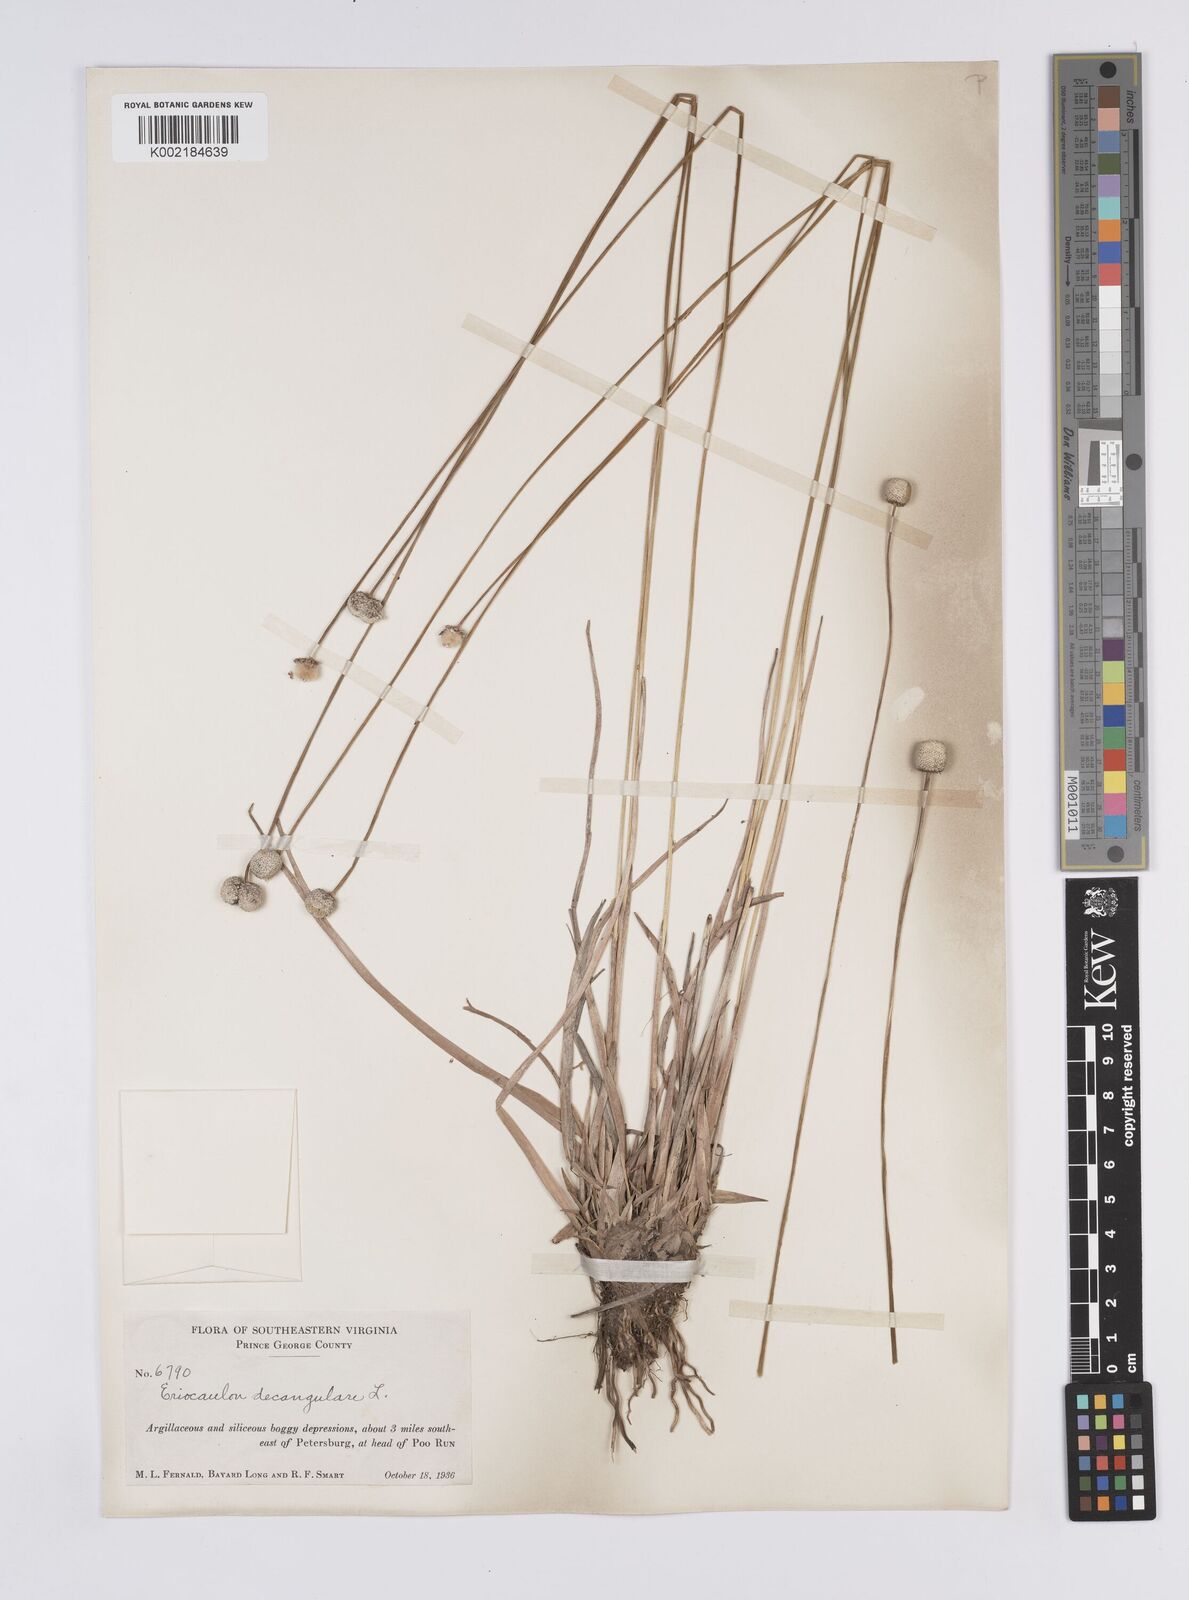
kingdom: Plantae
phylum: Tracheophyta
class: Liliopsida
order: Poales
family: Eriocaulaceae
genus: Eriocaulon
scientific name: Eriocaulon decangulare
